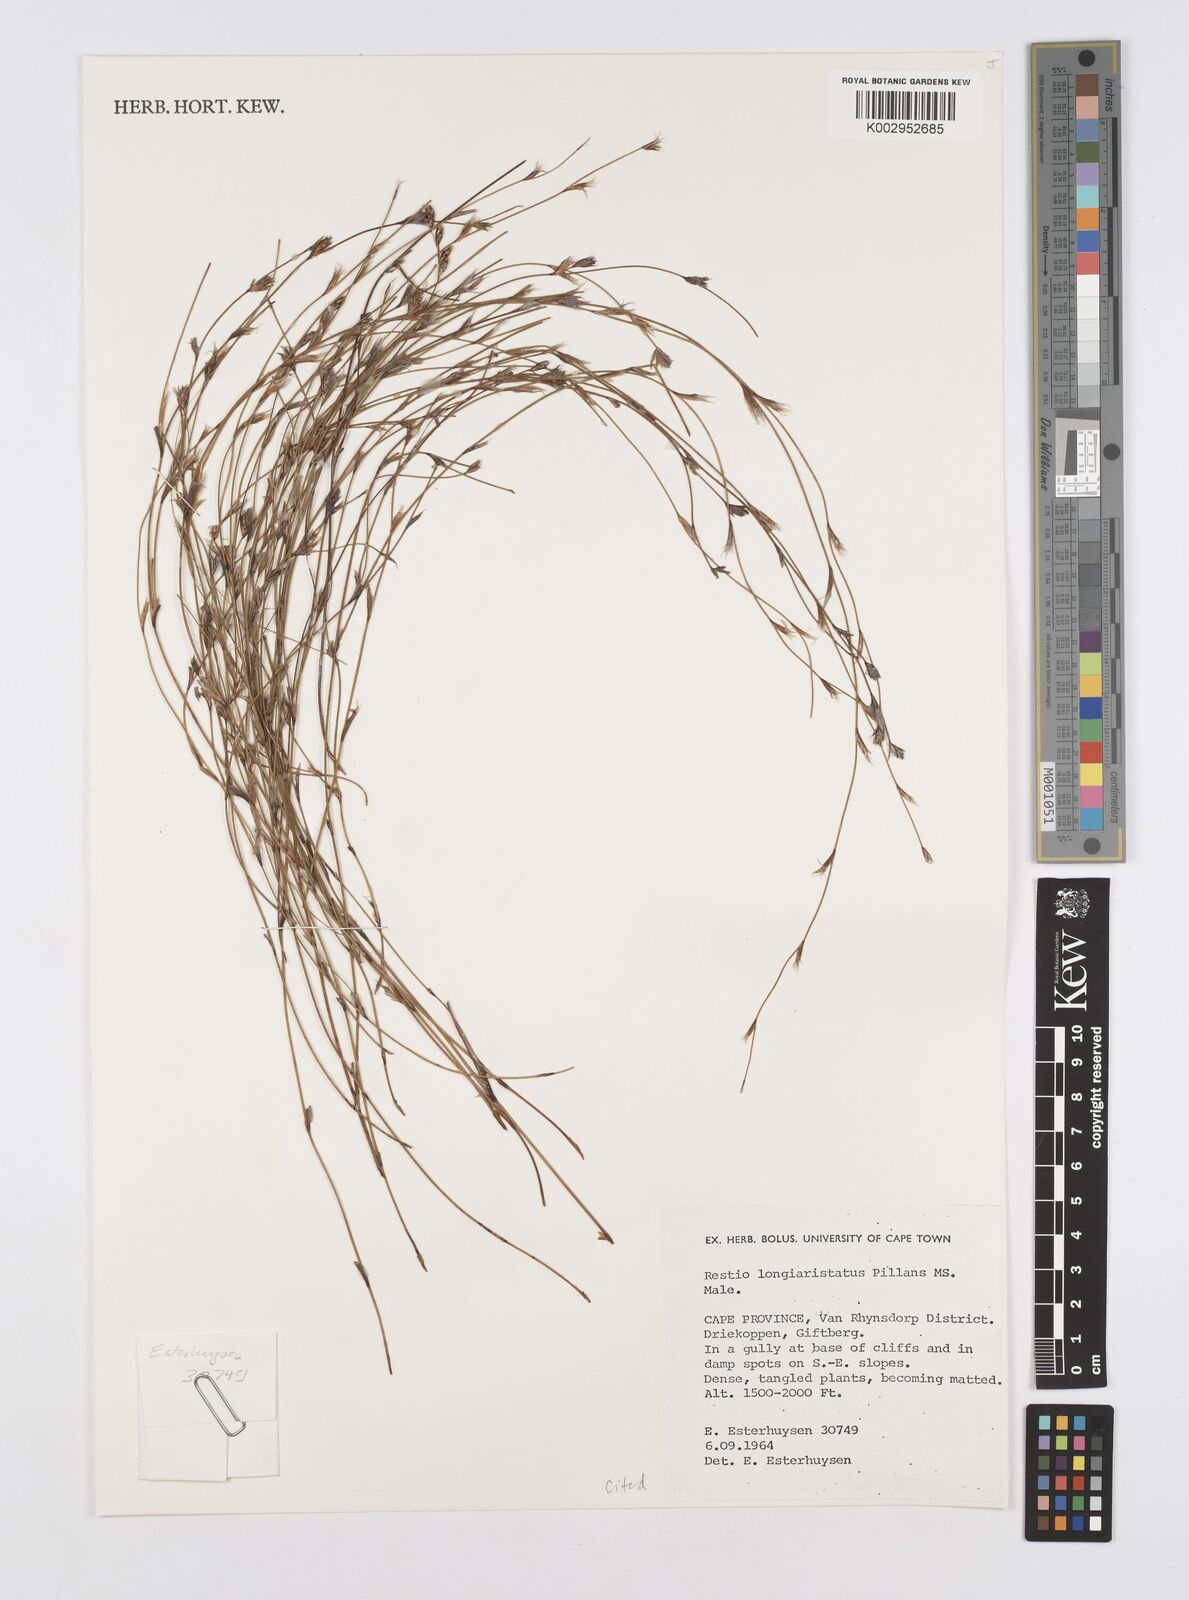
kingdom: Plantae
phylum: Tracheophyta
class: Liliopsida
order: Poales
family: Restionaceae
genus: Restio
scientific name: Restio longiaristatus
